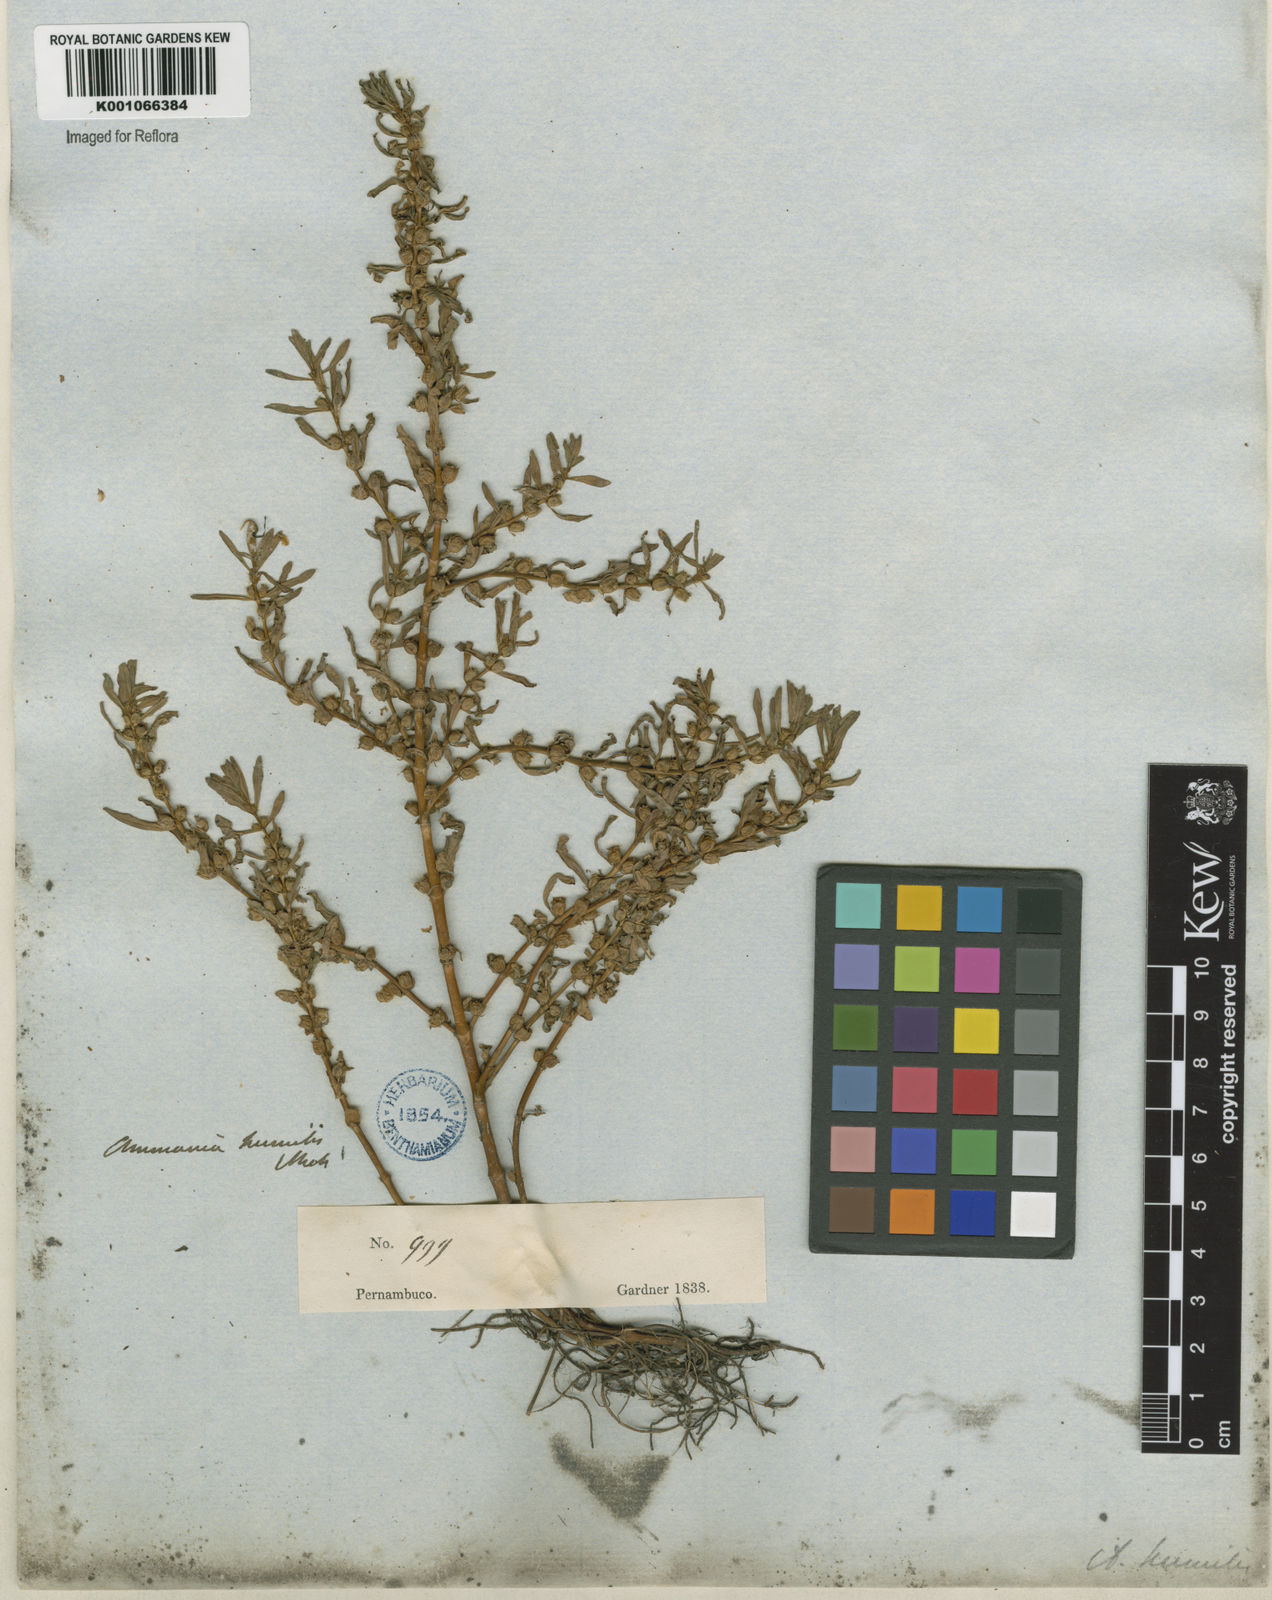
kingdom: Plantae
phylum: Tracheophyta
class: Magnoliopsida
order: Myrtales
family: Lythraceae
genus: Rotala
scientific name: Rotala ramosior
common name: Lowland rotala
